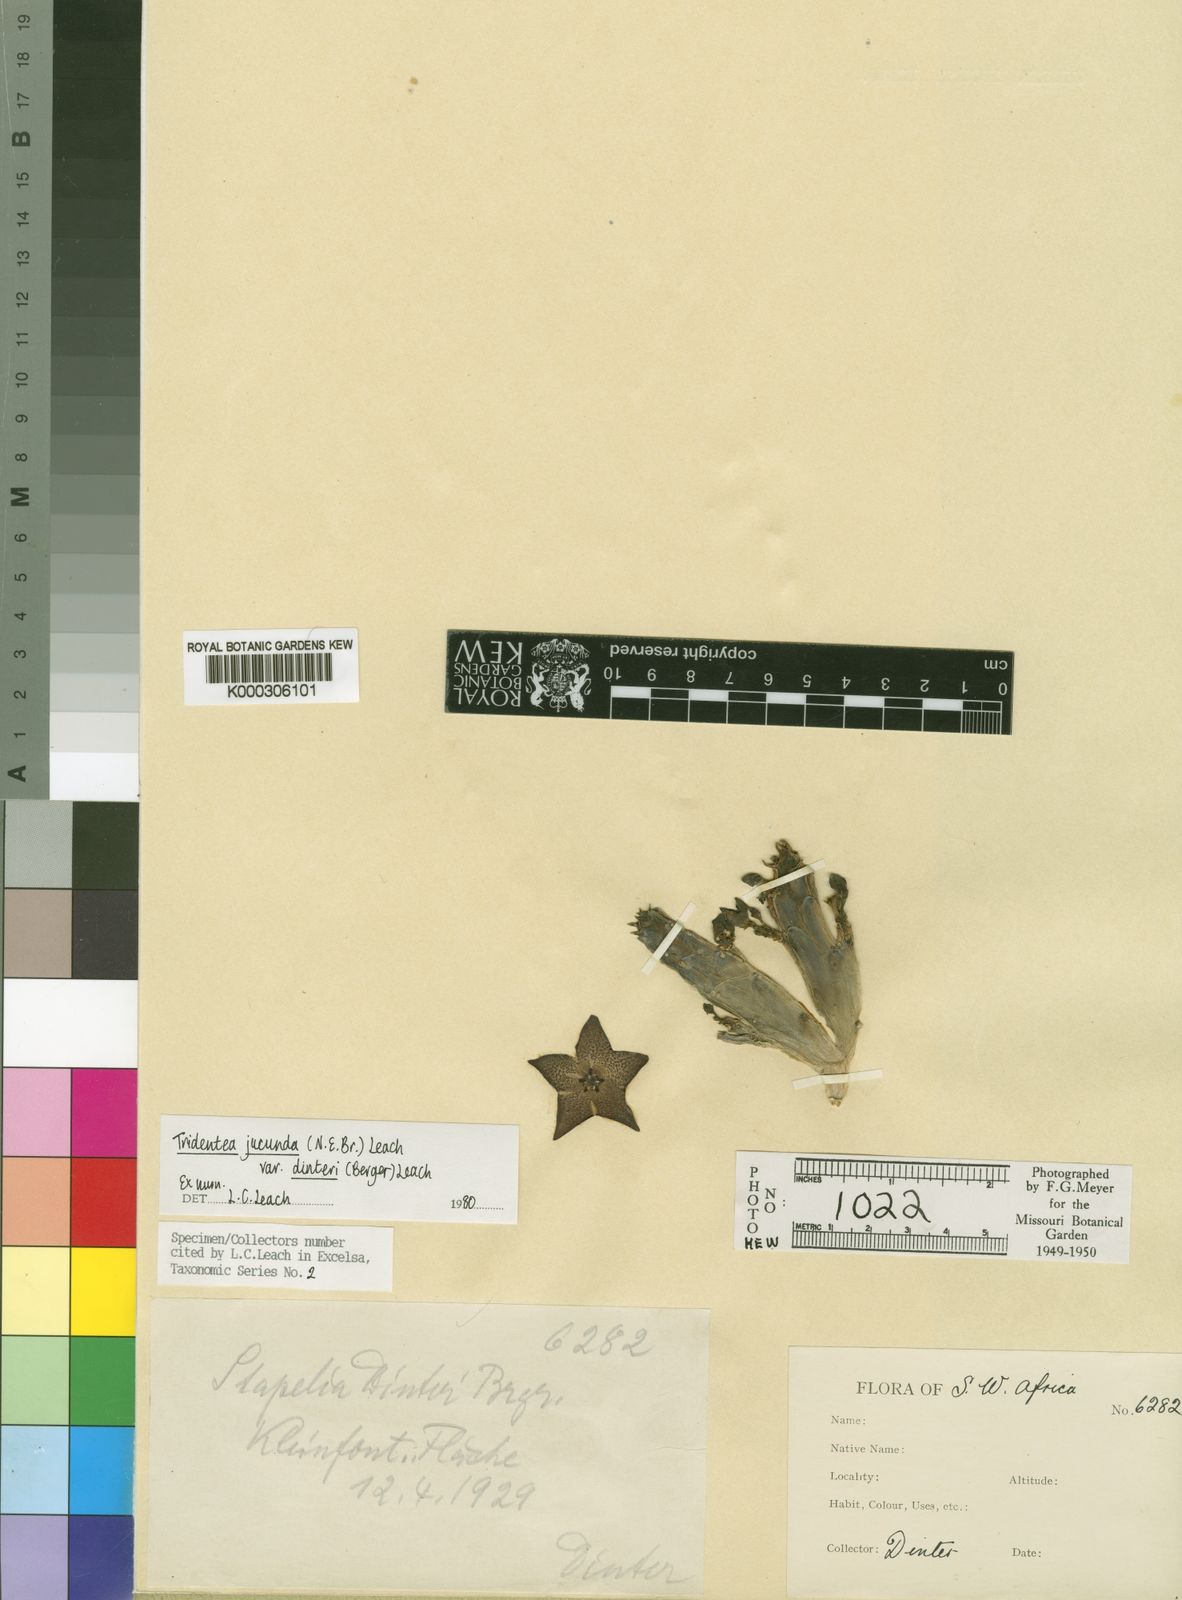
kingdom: Plantae
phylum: Tracheophyta
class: Magnoliopsida
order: Gentianales
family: Apocynaceae
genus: Ceropegia
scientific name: Ceropegia ausana
